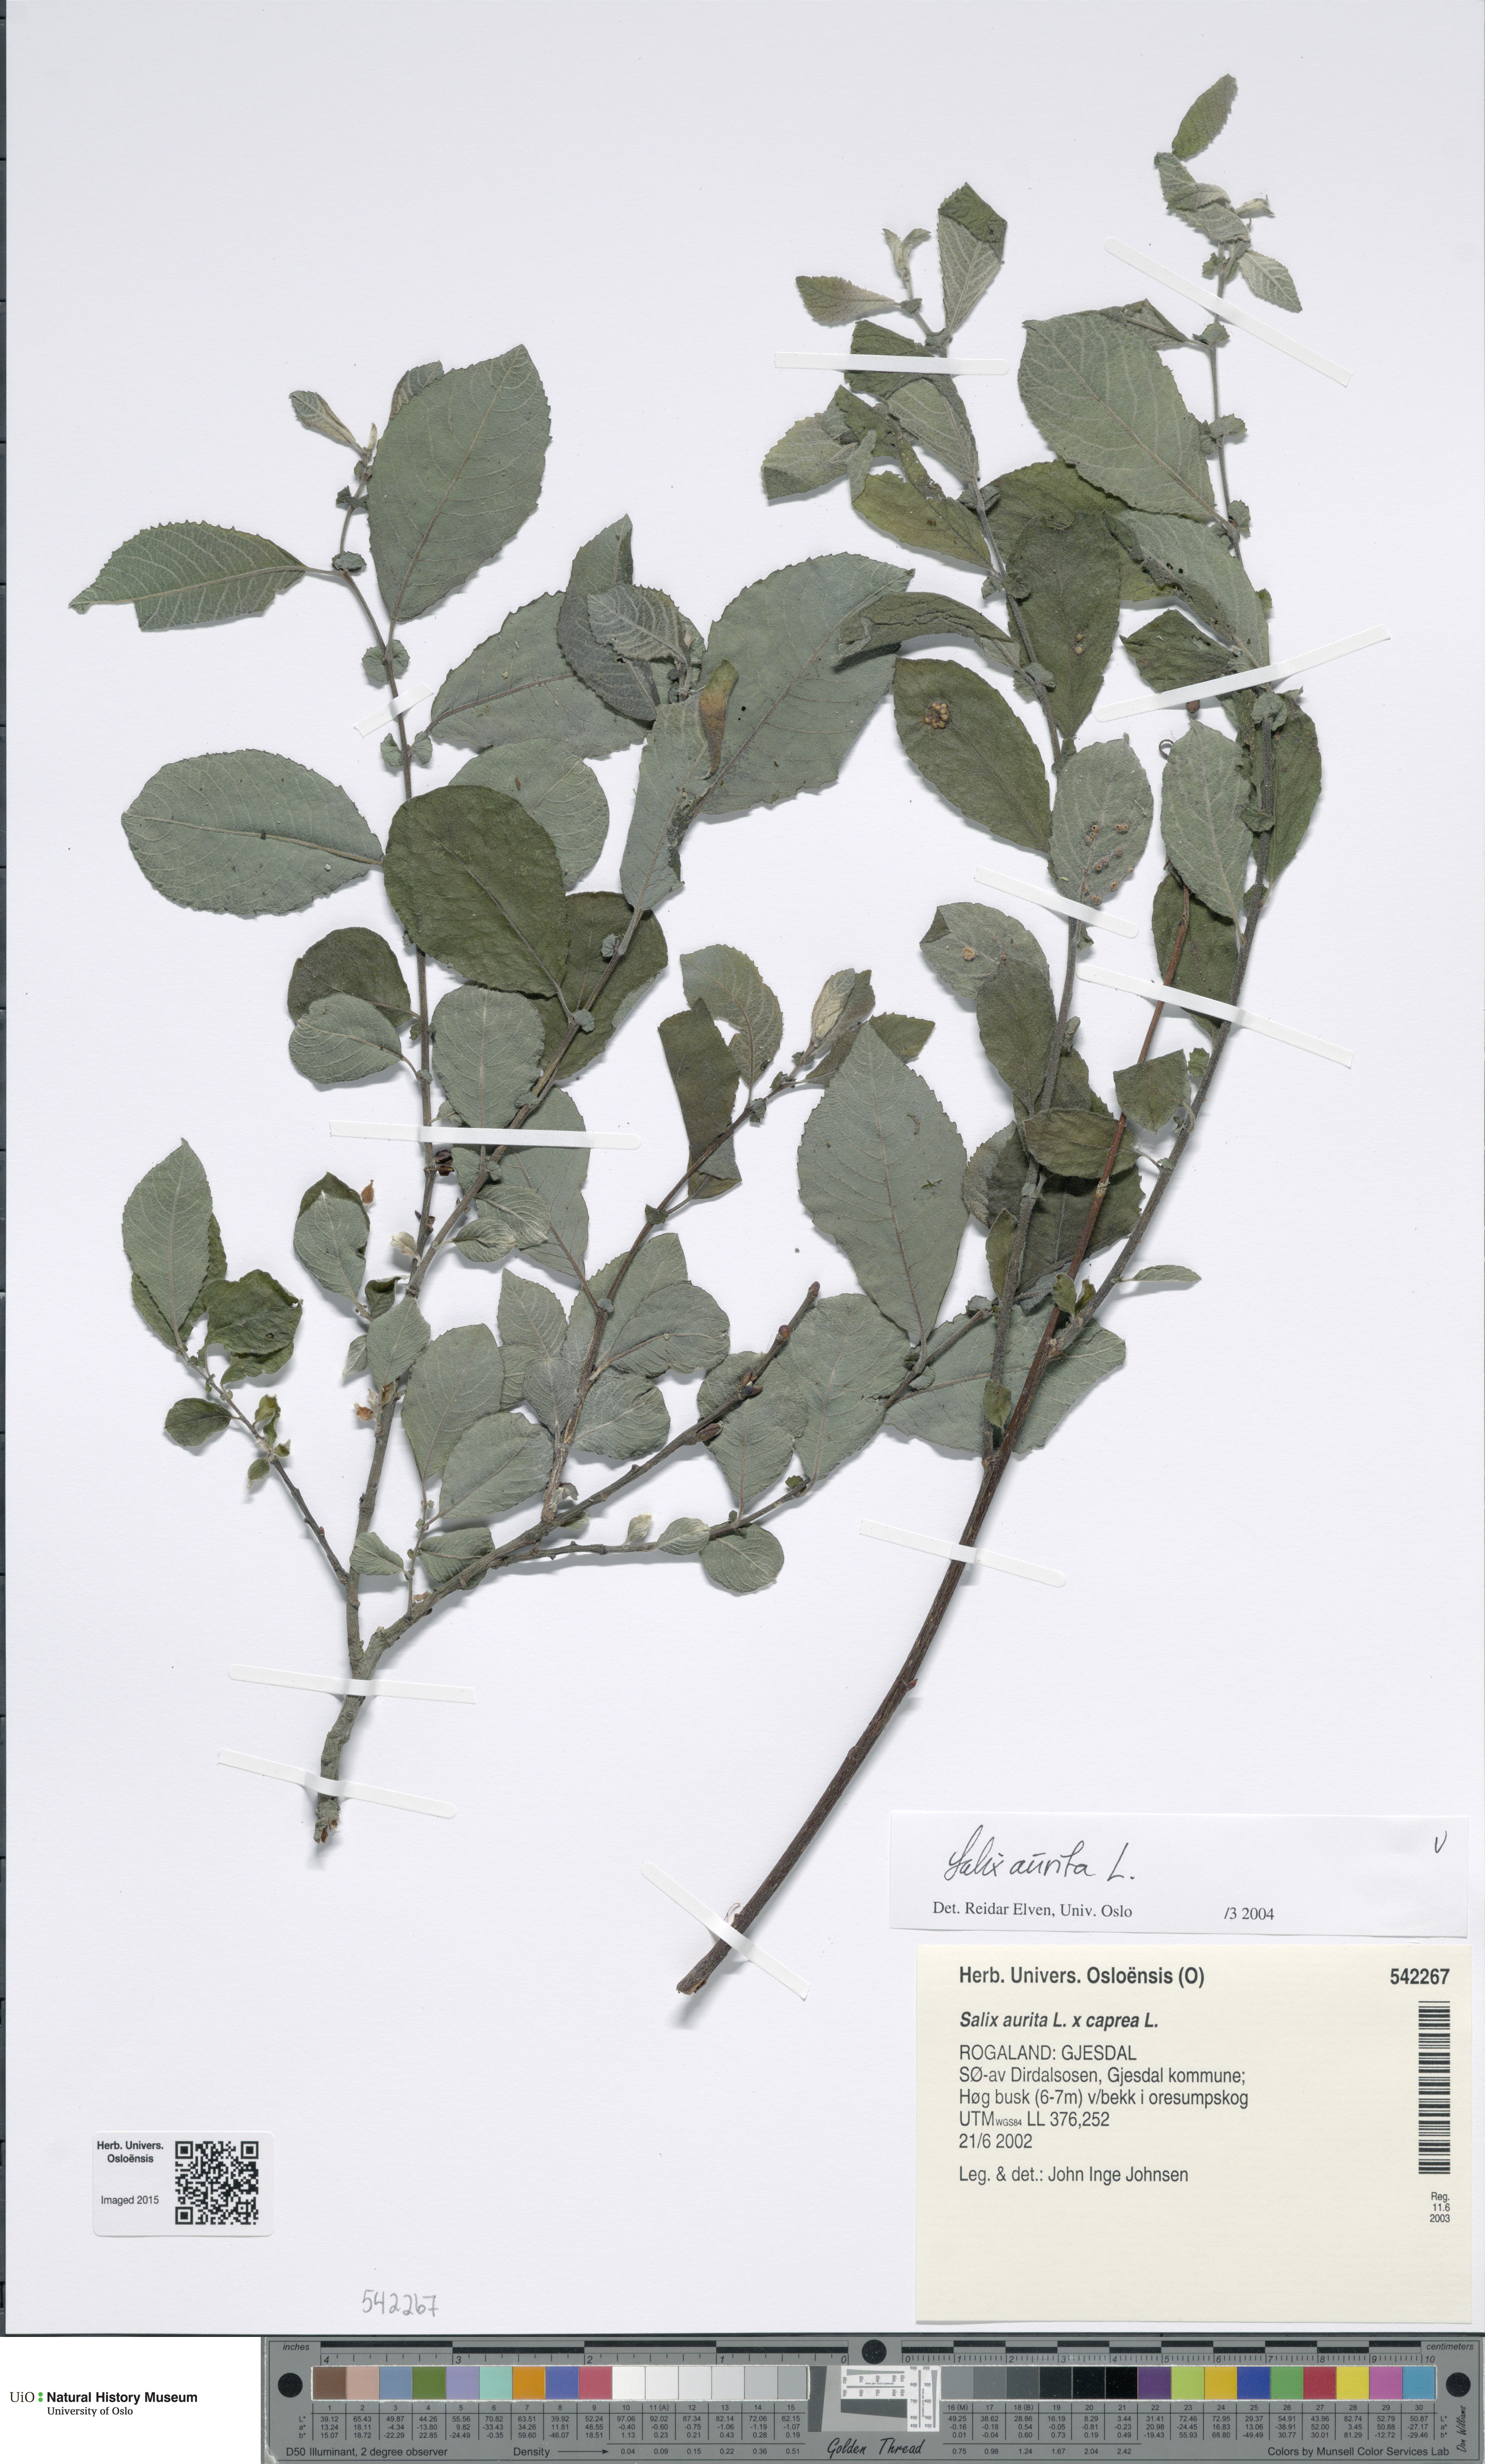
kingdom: Plantae
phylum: Tracheophyta
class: Magnoliopsida
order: Malpighiales
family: Salicaceae
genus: Salix
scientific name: Salix aurita
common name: Eared willow
